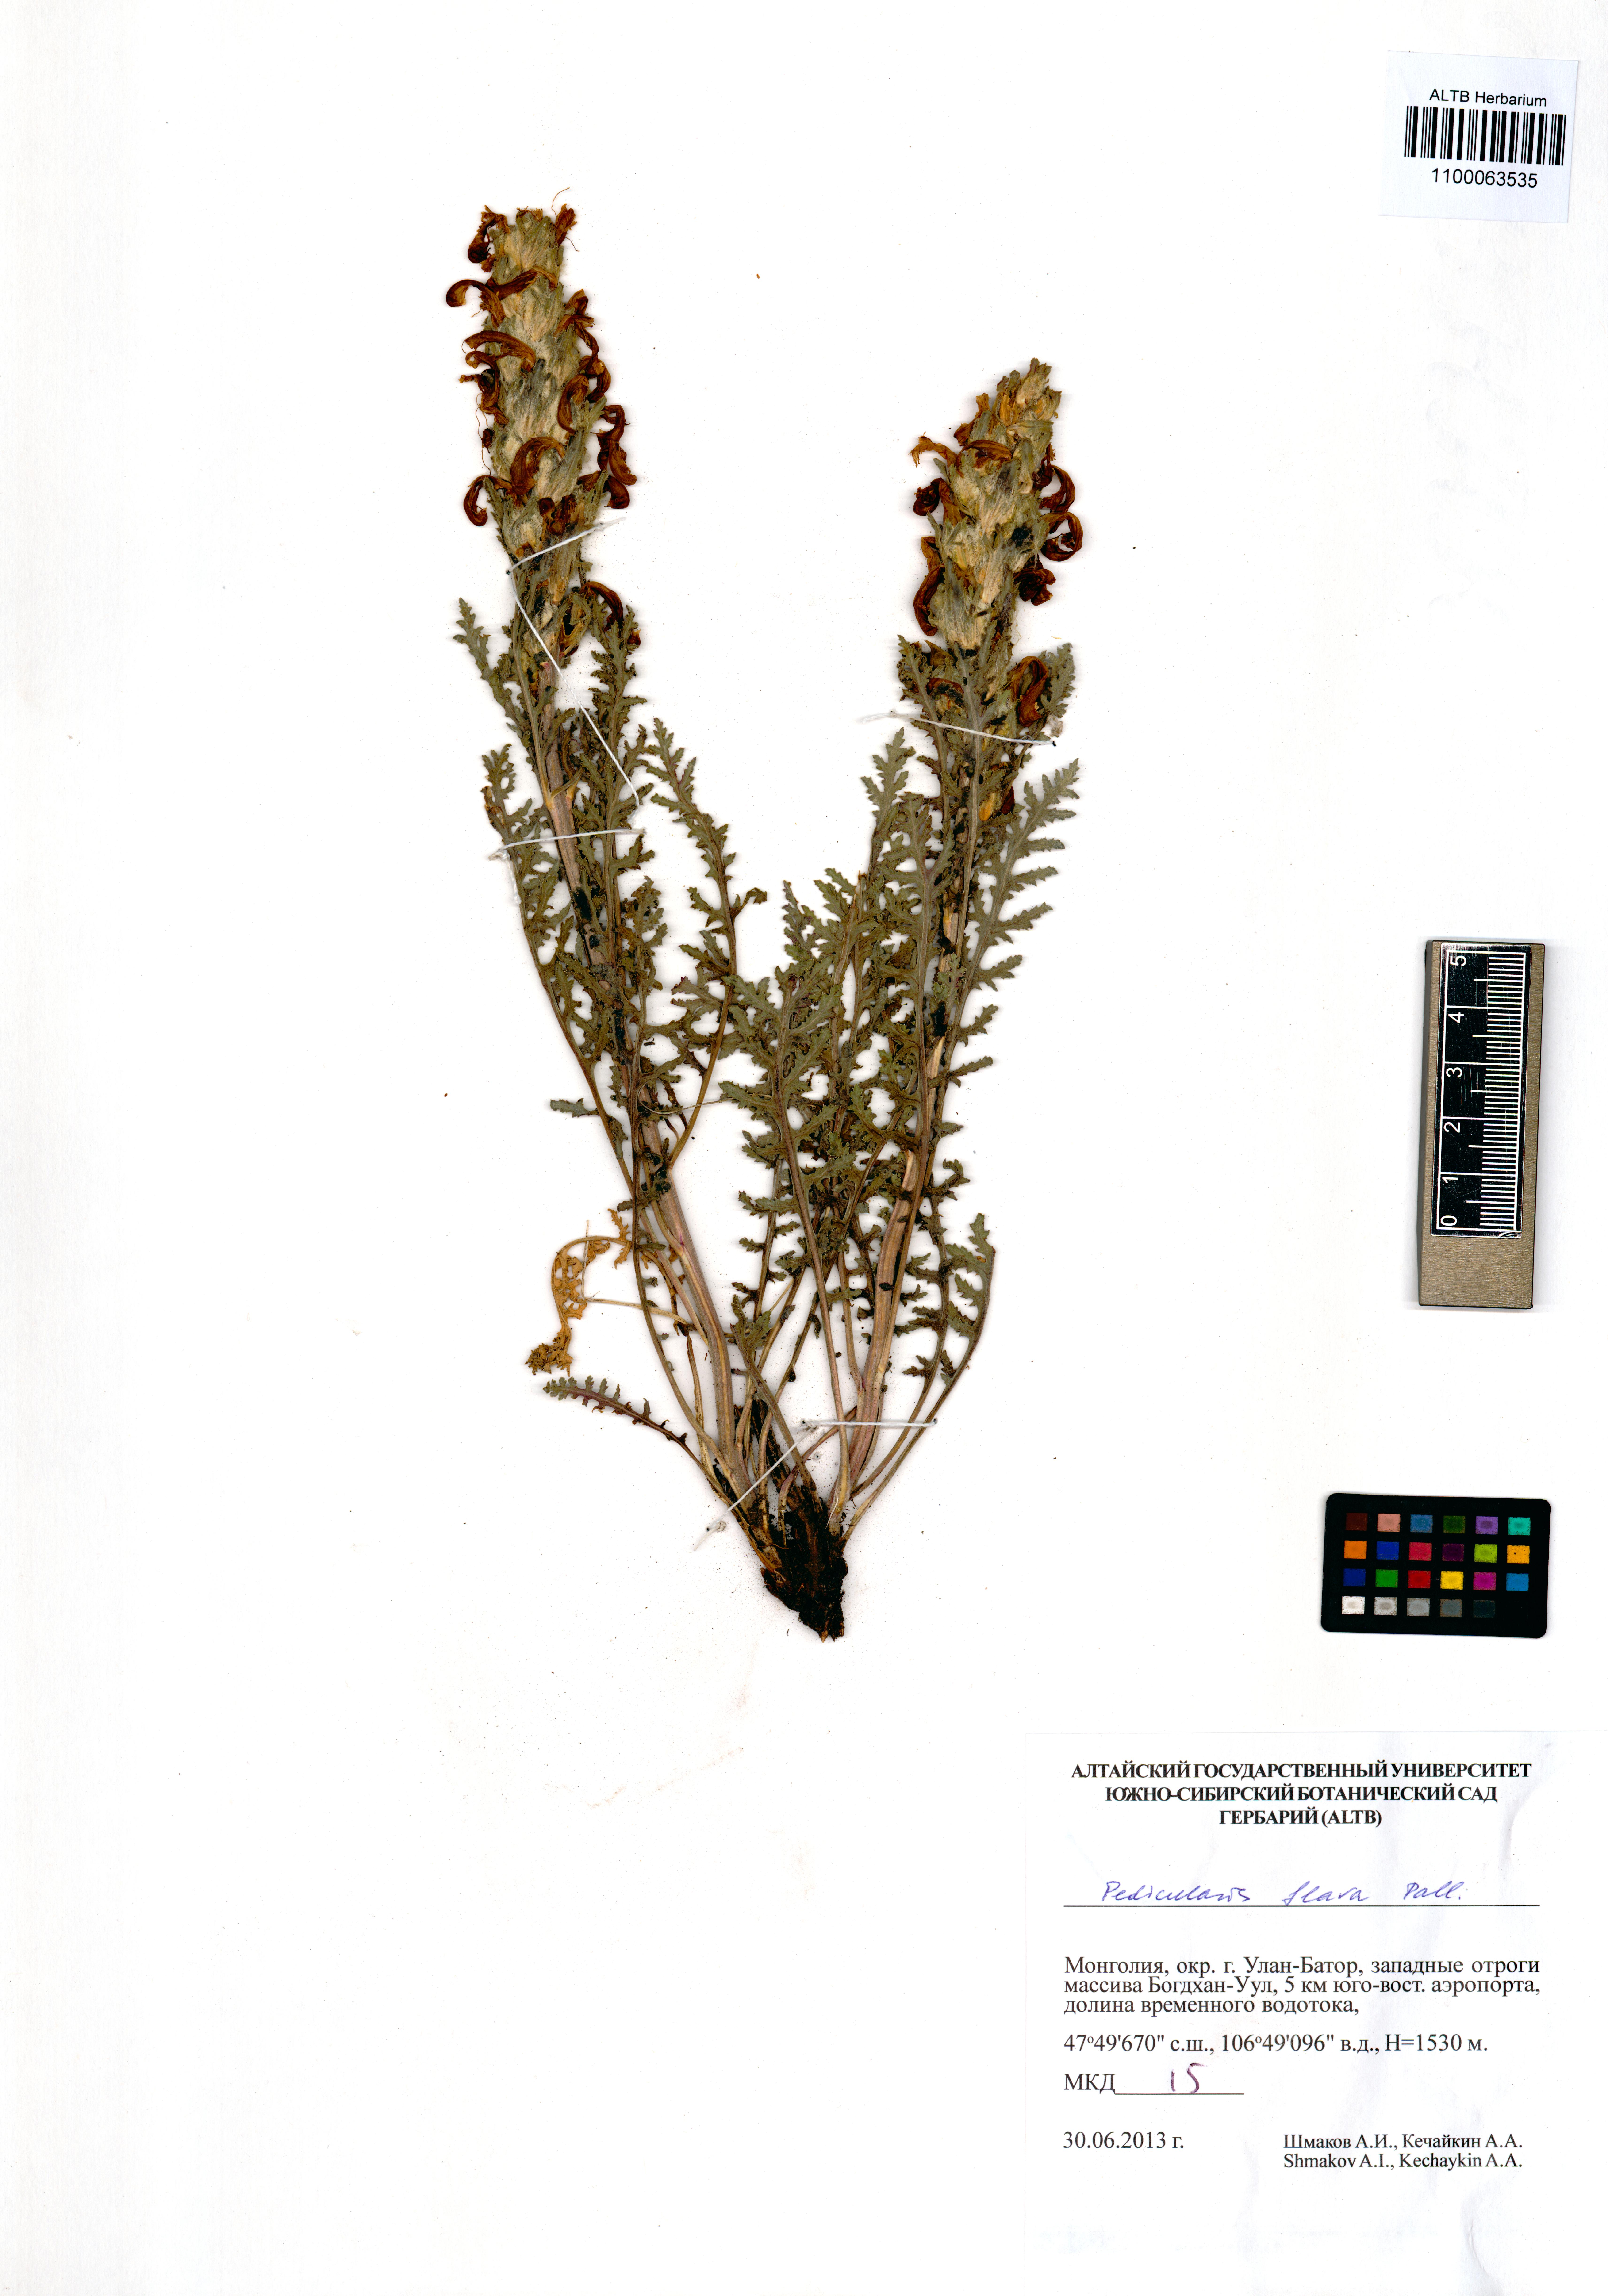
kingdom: Plantae
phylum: Tracheophyta
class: Magnoliopsida
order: Lamiales
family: Orobanchaceae
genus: Pedicularis
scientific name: Pedicularis flava
